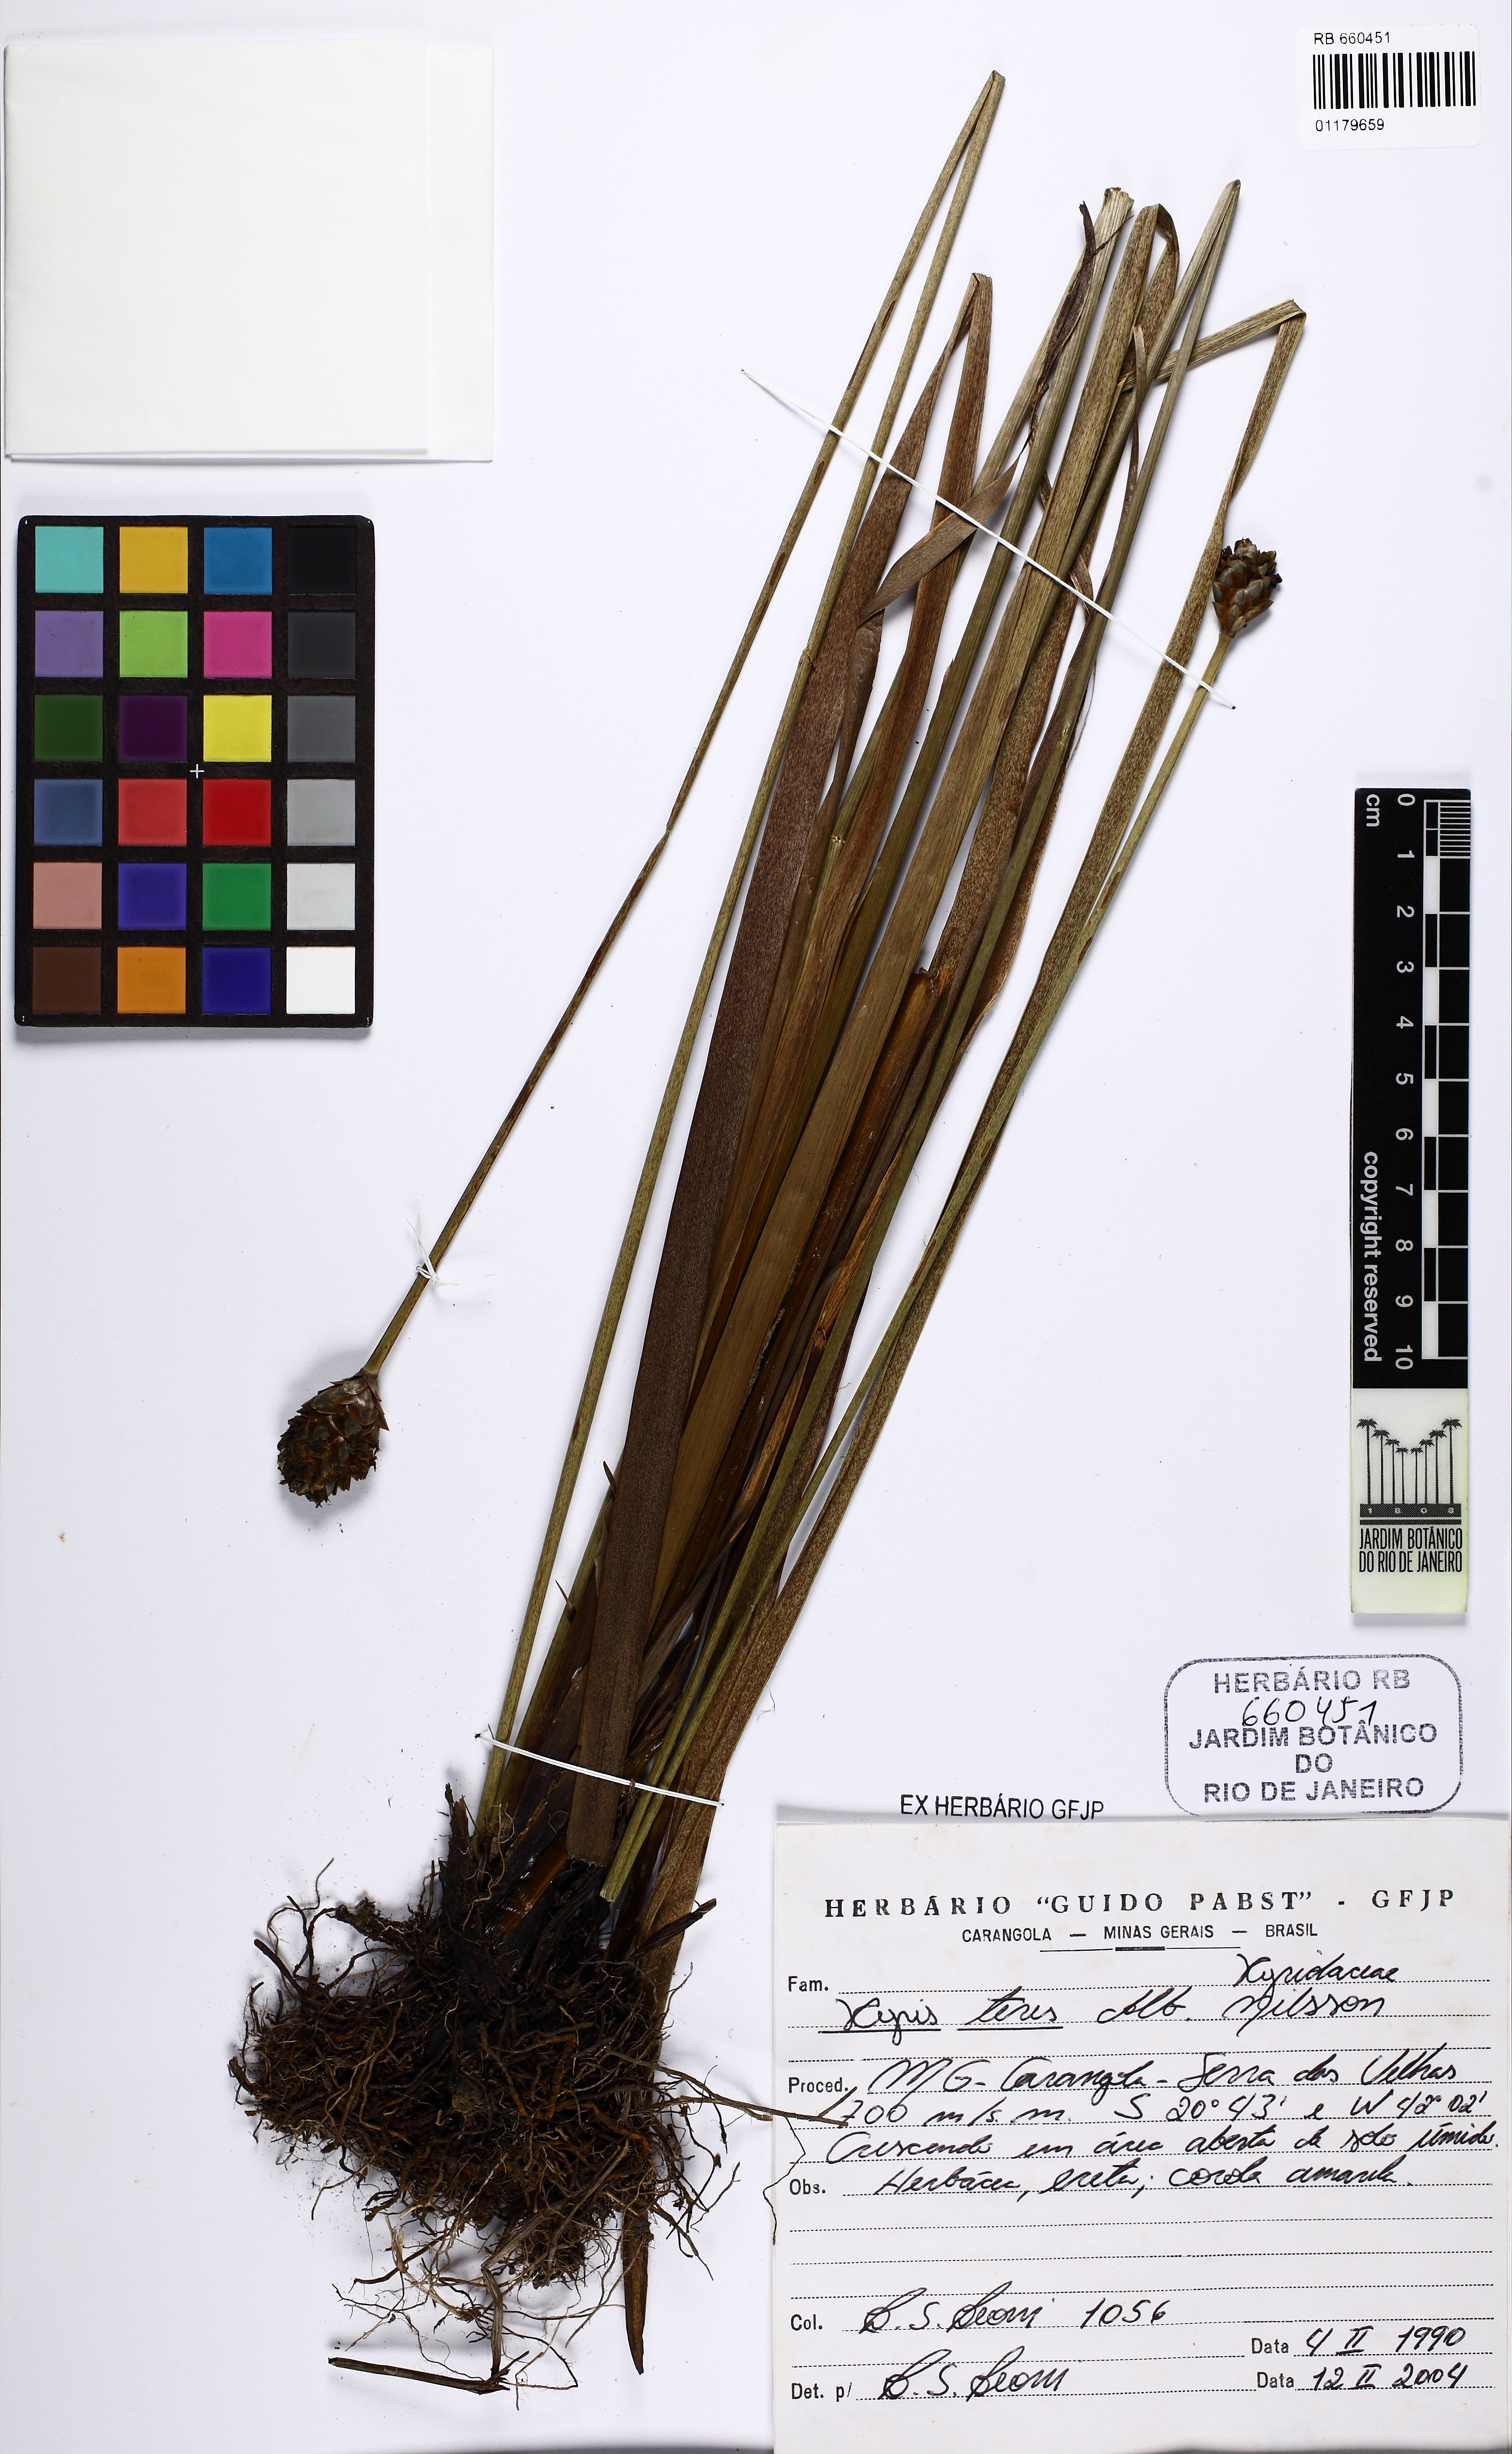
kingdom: Plantae
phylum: Tracheophyta
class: Liliopsida
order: Poales
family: Xyridaceae
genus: Xyris
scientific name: Xyris teres
